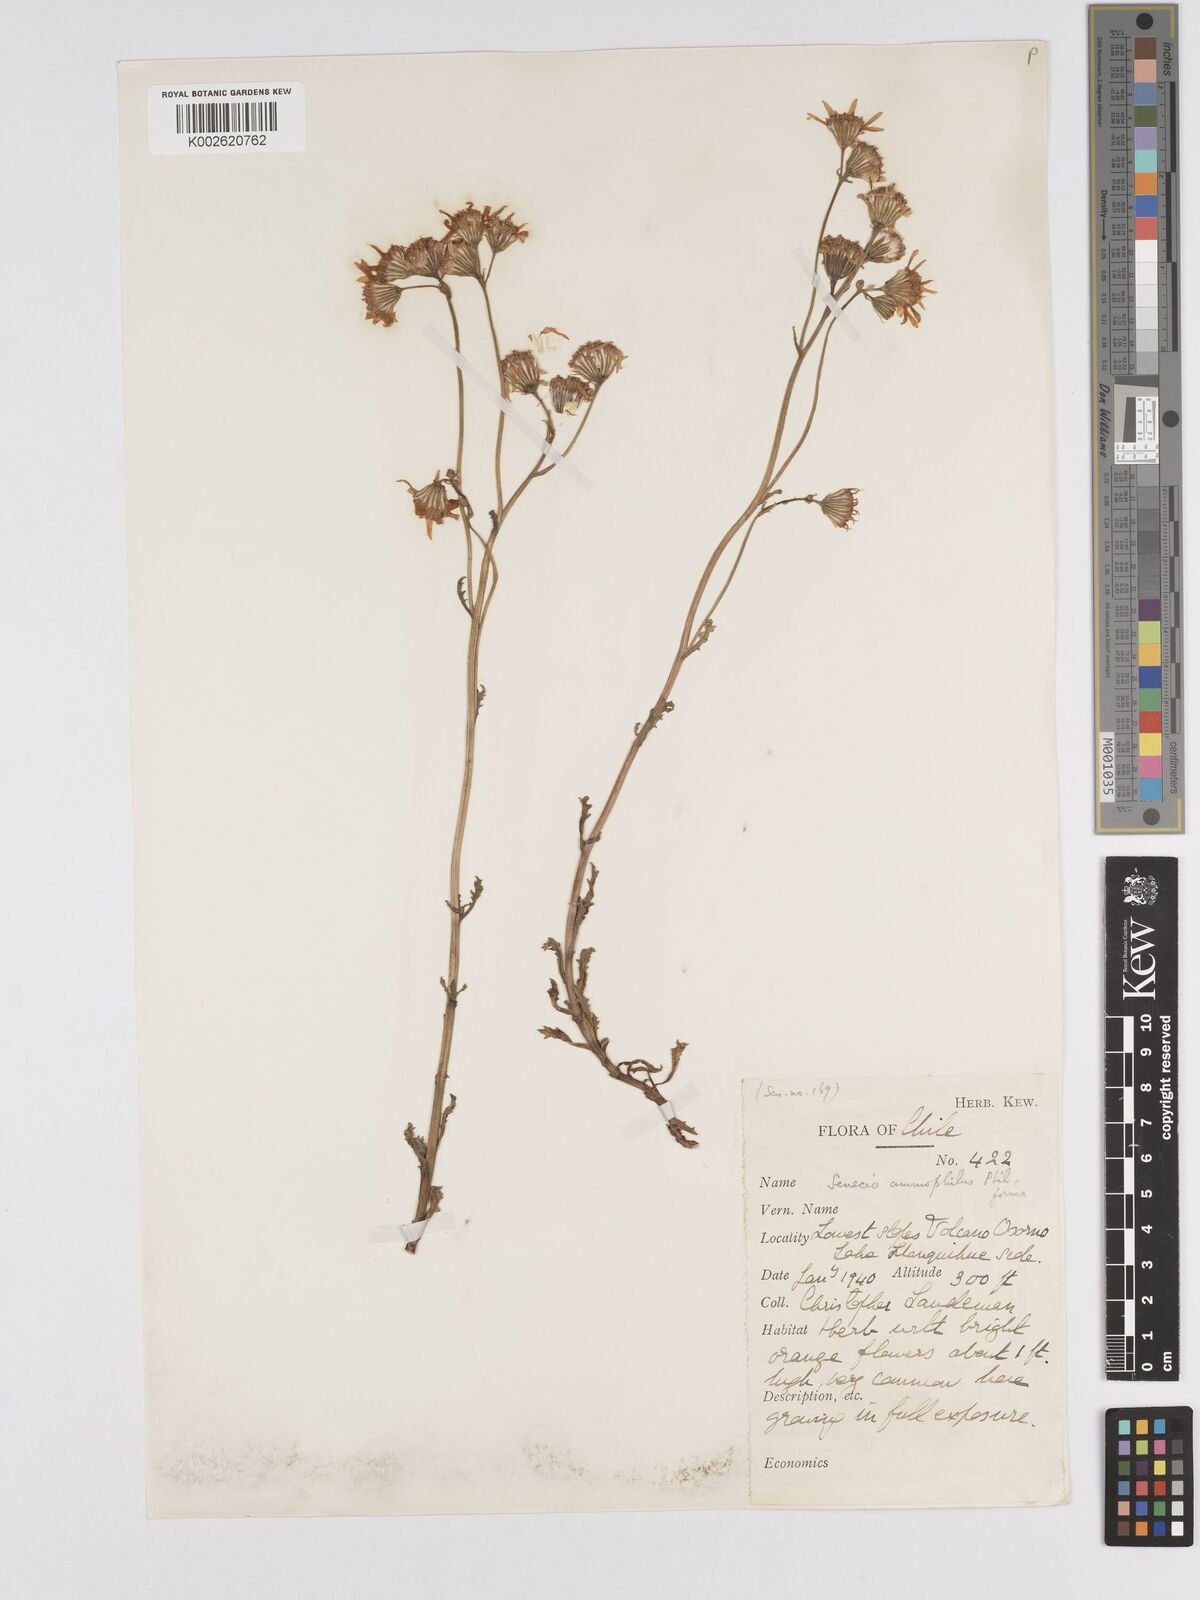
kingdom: Plantae
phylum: Tracheophyta
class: Magnoliopsida
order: Asterales
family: Asteraceae
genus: Senecio
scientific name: Senecio
